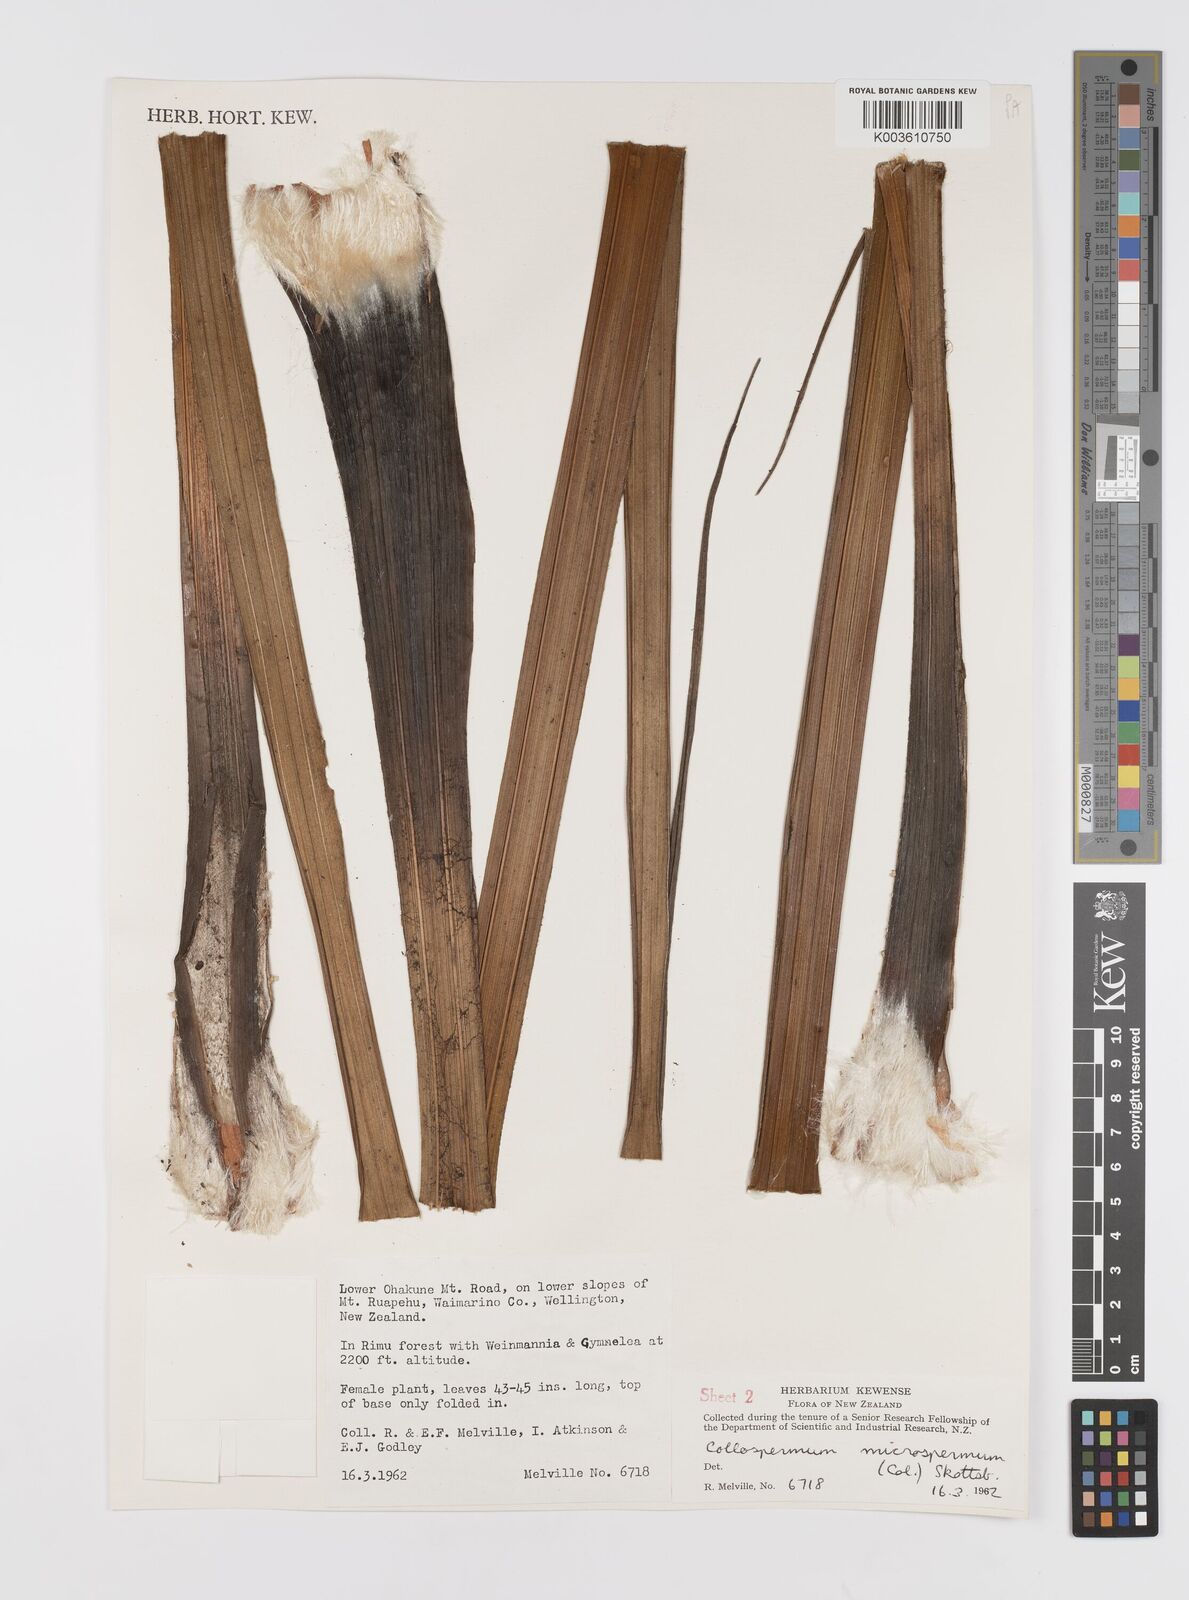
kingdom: Plantae
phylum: Tracheophyta
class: Liliopsida
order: Asparagales
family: Asteliaceae
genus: Astelia
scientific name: Astelia microsperma
